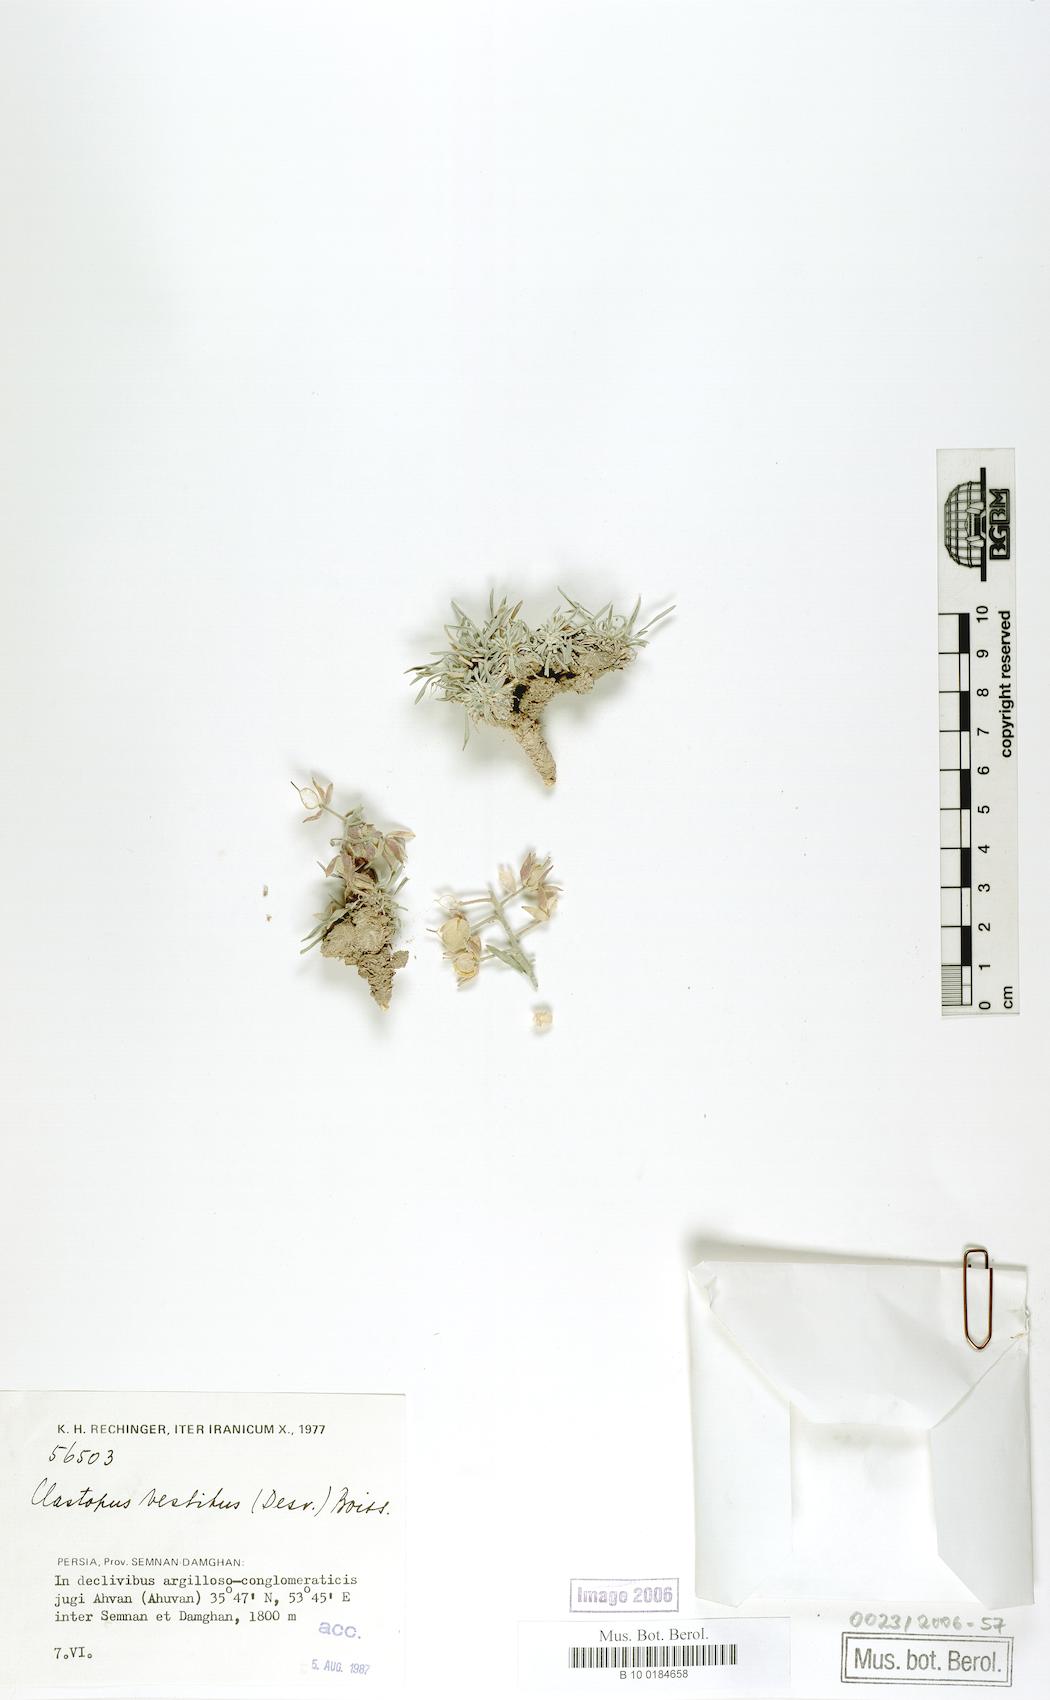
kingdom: Plantae
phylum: Tracheophyta
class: Magnoliopsida
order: Brassicales
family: Brassicaceae
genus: Clastopus
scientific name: Clastopus vestitus
